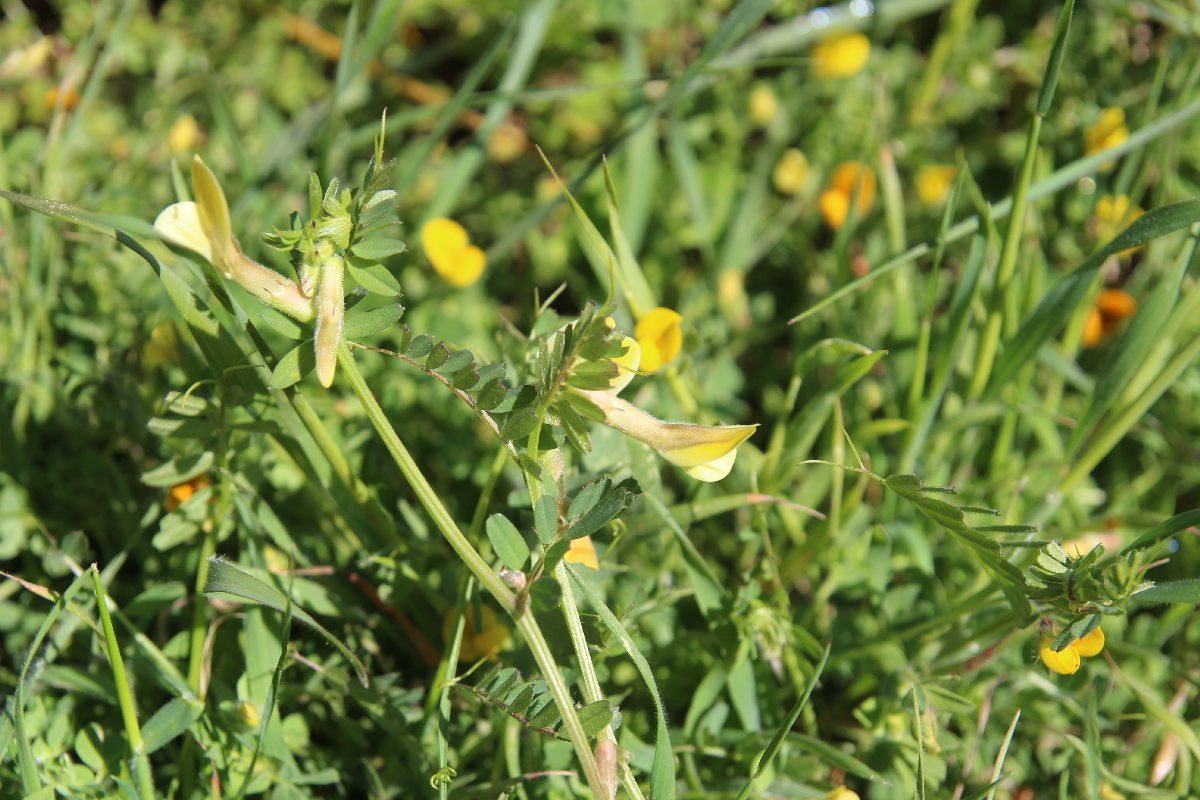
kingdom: Plantae
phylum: Tracheophyta
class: Magnoliopsida
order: Fabales
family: Fabaceae
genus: Vicia
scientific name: Vicia hybrida
